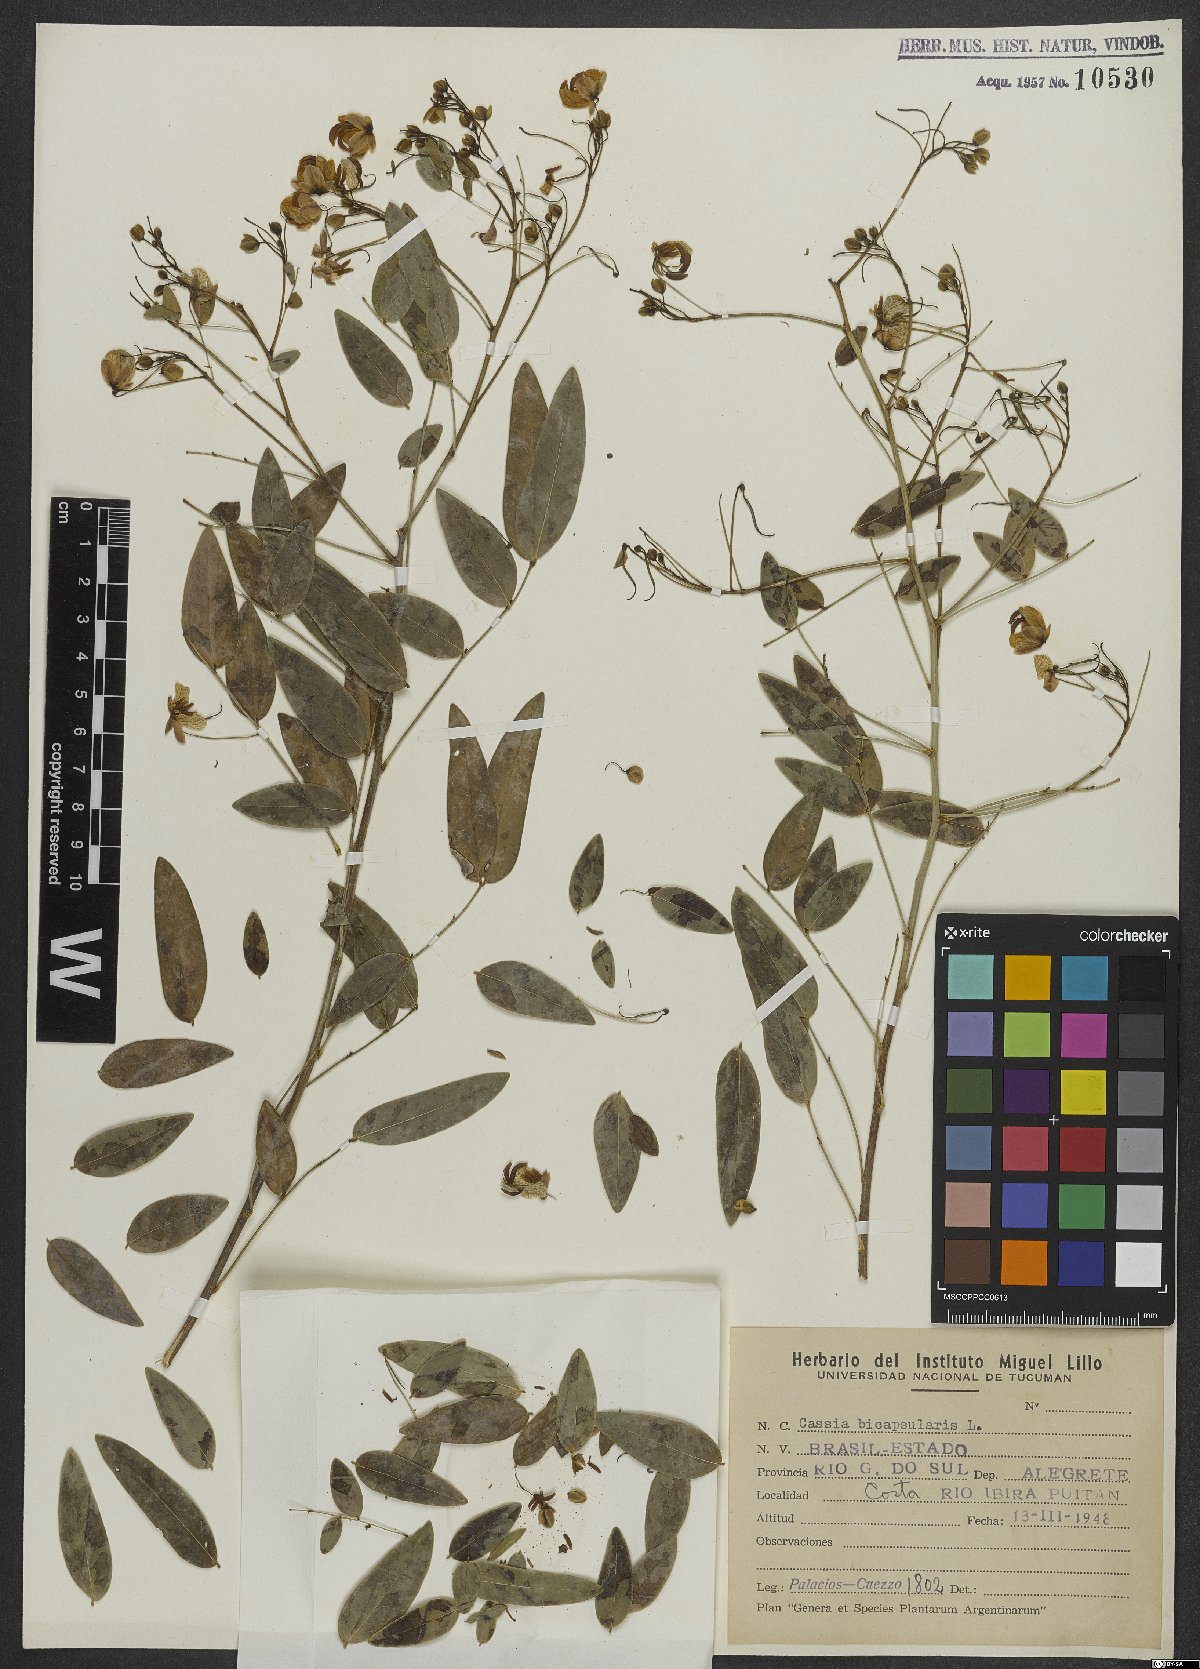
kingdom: Plantae
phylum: Tracheophyta
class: Magnoliopsida
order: Fabales
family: Fabaceae
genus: Senna
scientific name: Senna bicapsularis
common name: Christmasbush
